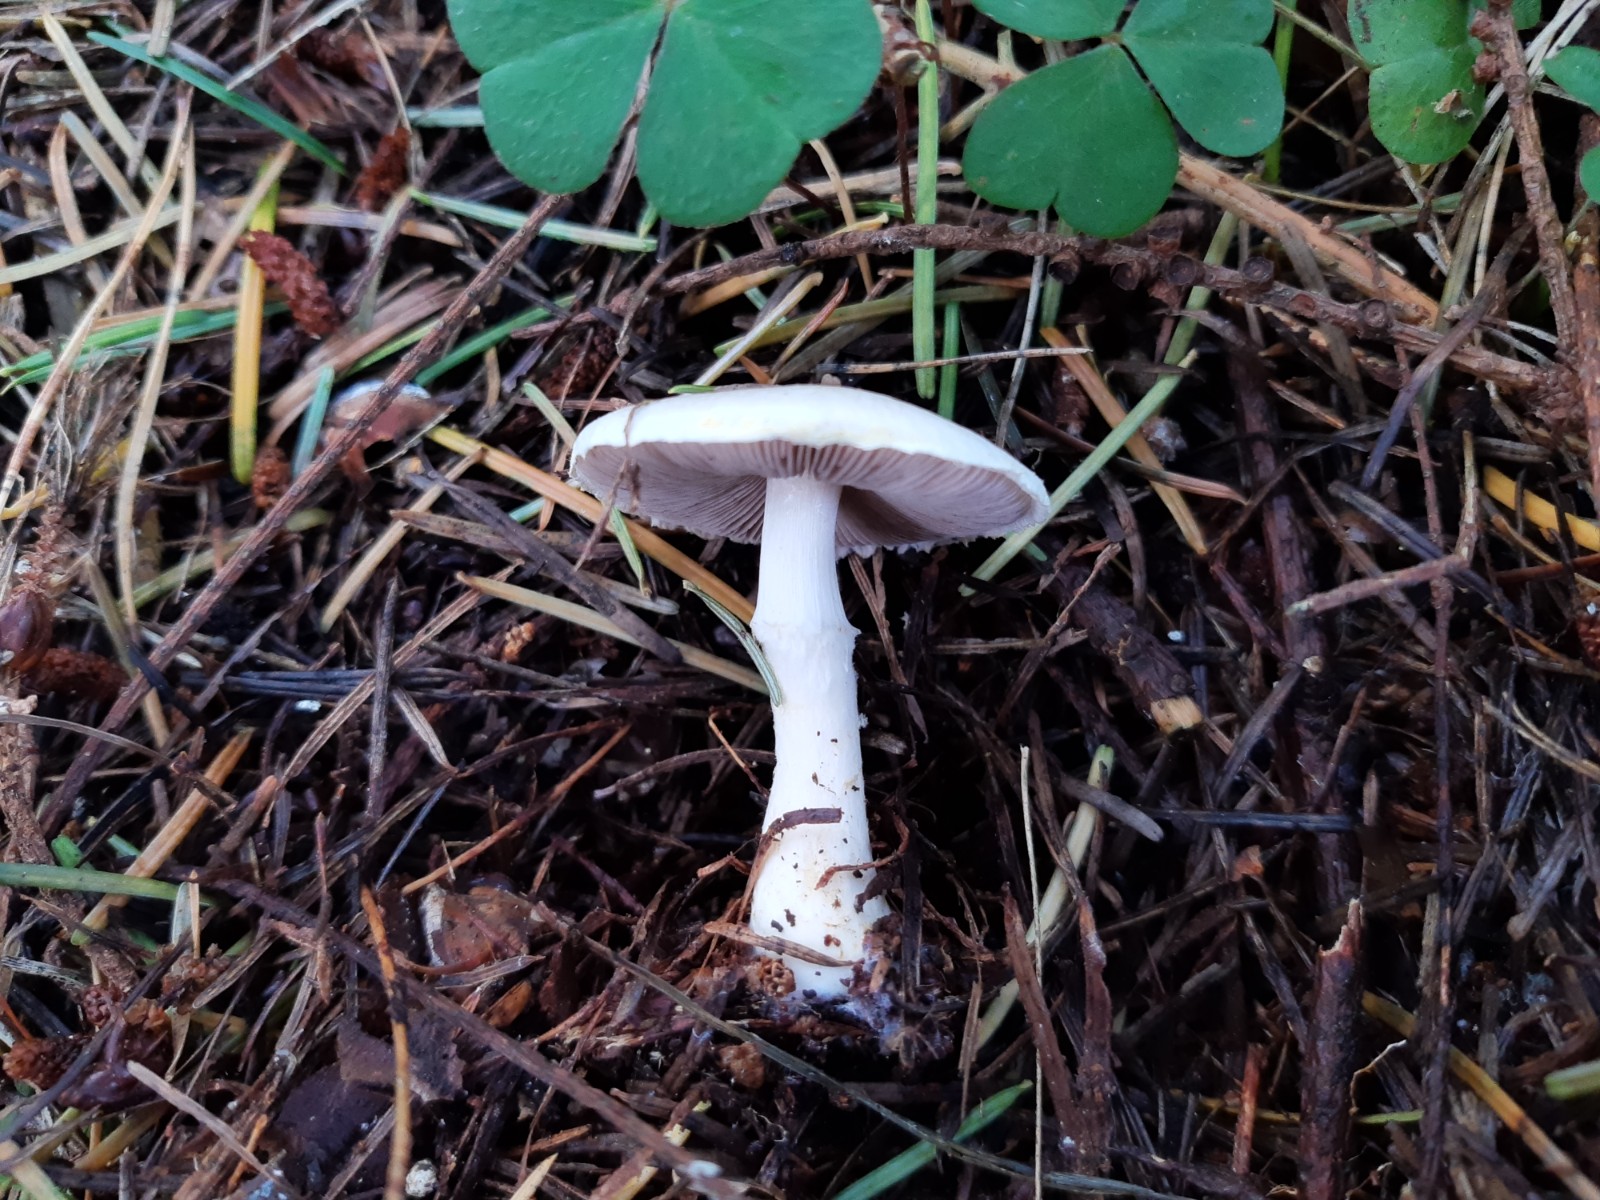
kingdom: Fungi
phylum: Basidiomycota
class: Agaricomycetes
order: Agaricales
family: Agaricaceae
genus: Agaricus
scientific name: Agaricus dulcidulus
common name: blegrød champignon
